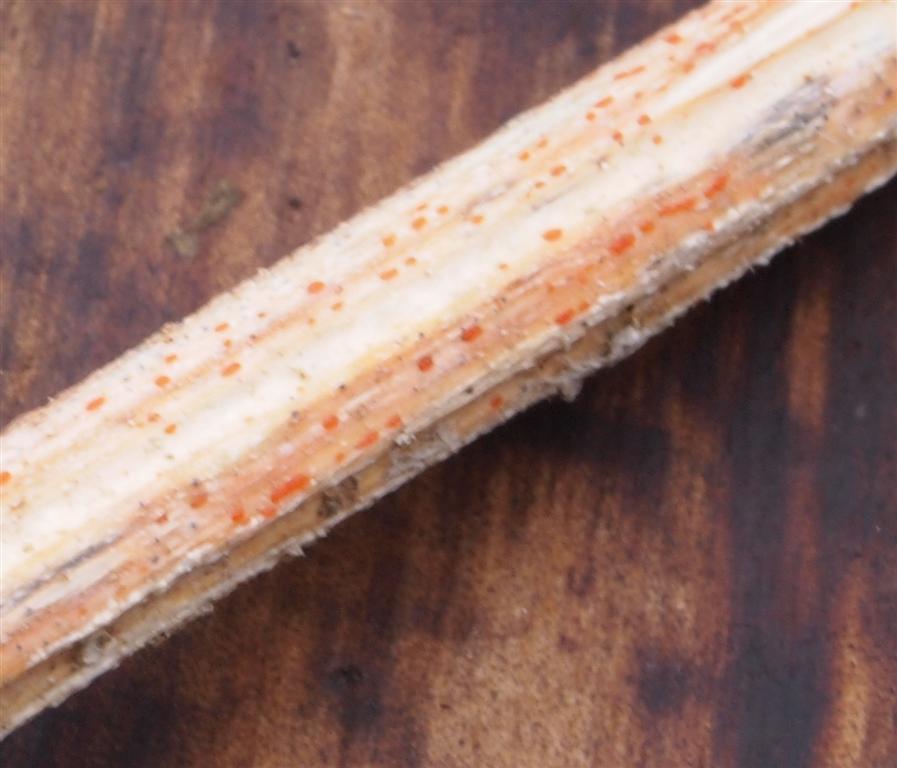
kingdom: Fungi
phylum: Ascomycota
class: Leotiomycetes
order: Helotiales
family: Calloriaceae
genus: Calloria
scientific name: Calloria urticae
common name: nælde-orangeskive
